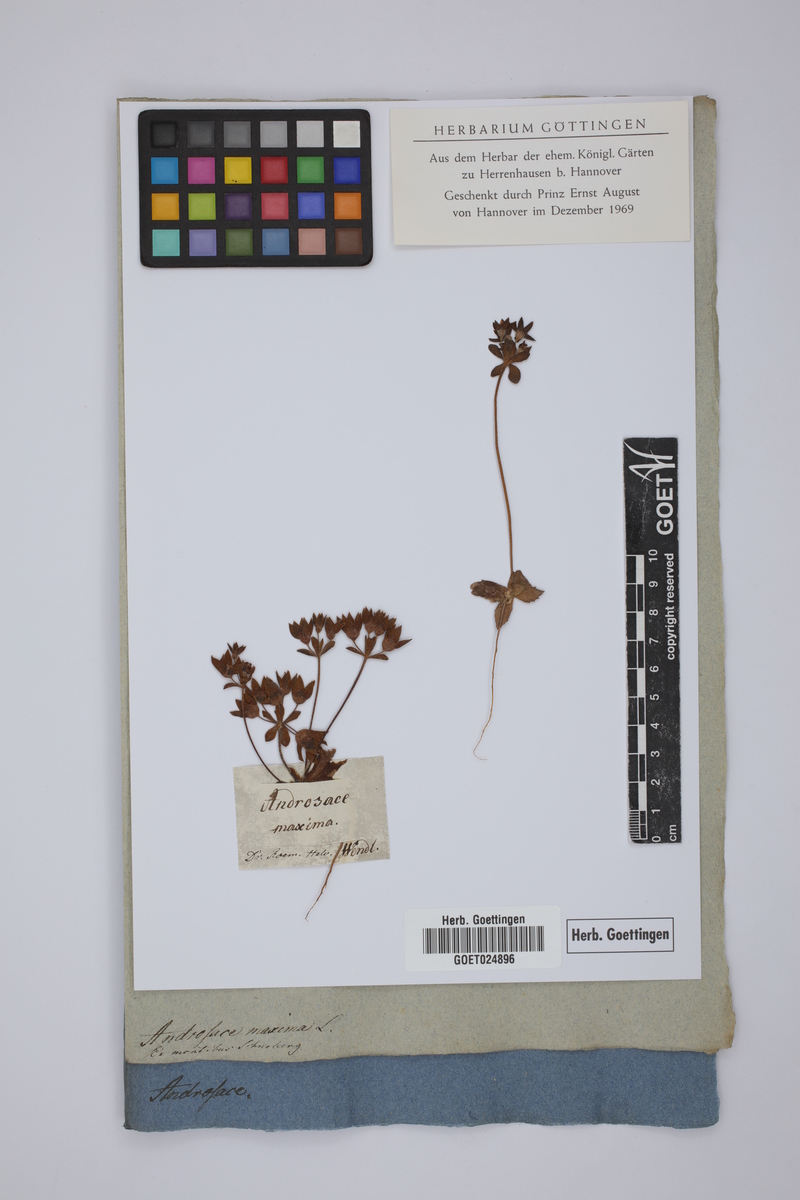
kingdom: Plantae
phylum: Tracheophyta
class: Magnoliopsida
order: Ericales
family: Primulaceae
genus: Androsace
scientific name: Androsace maxima
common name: Annual androsace
